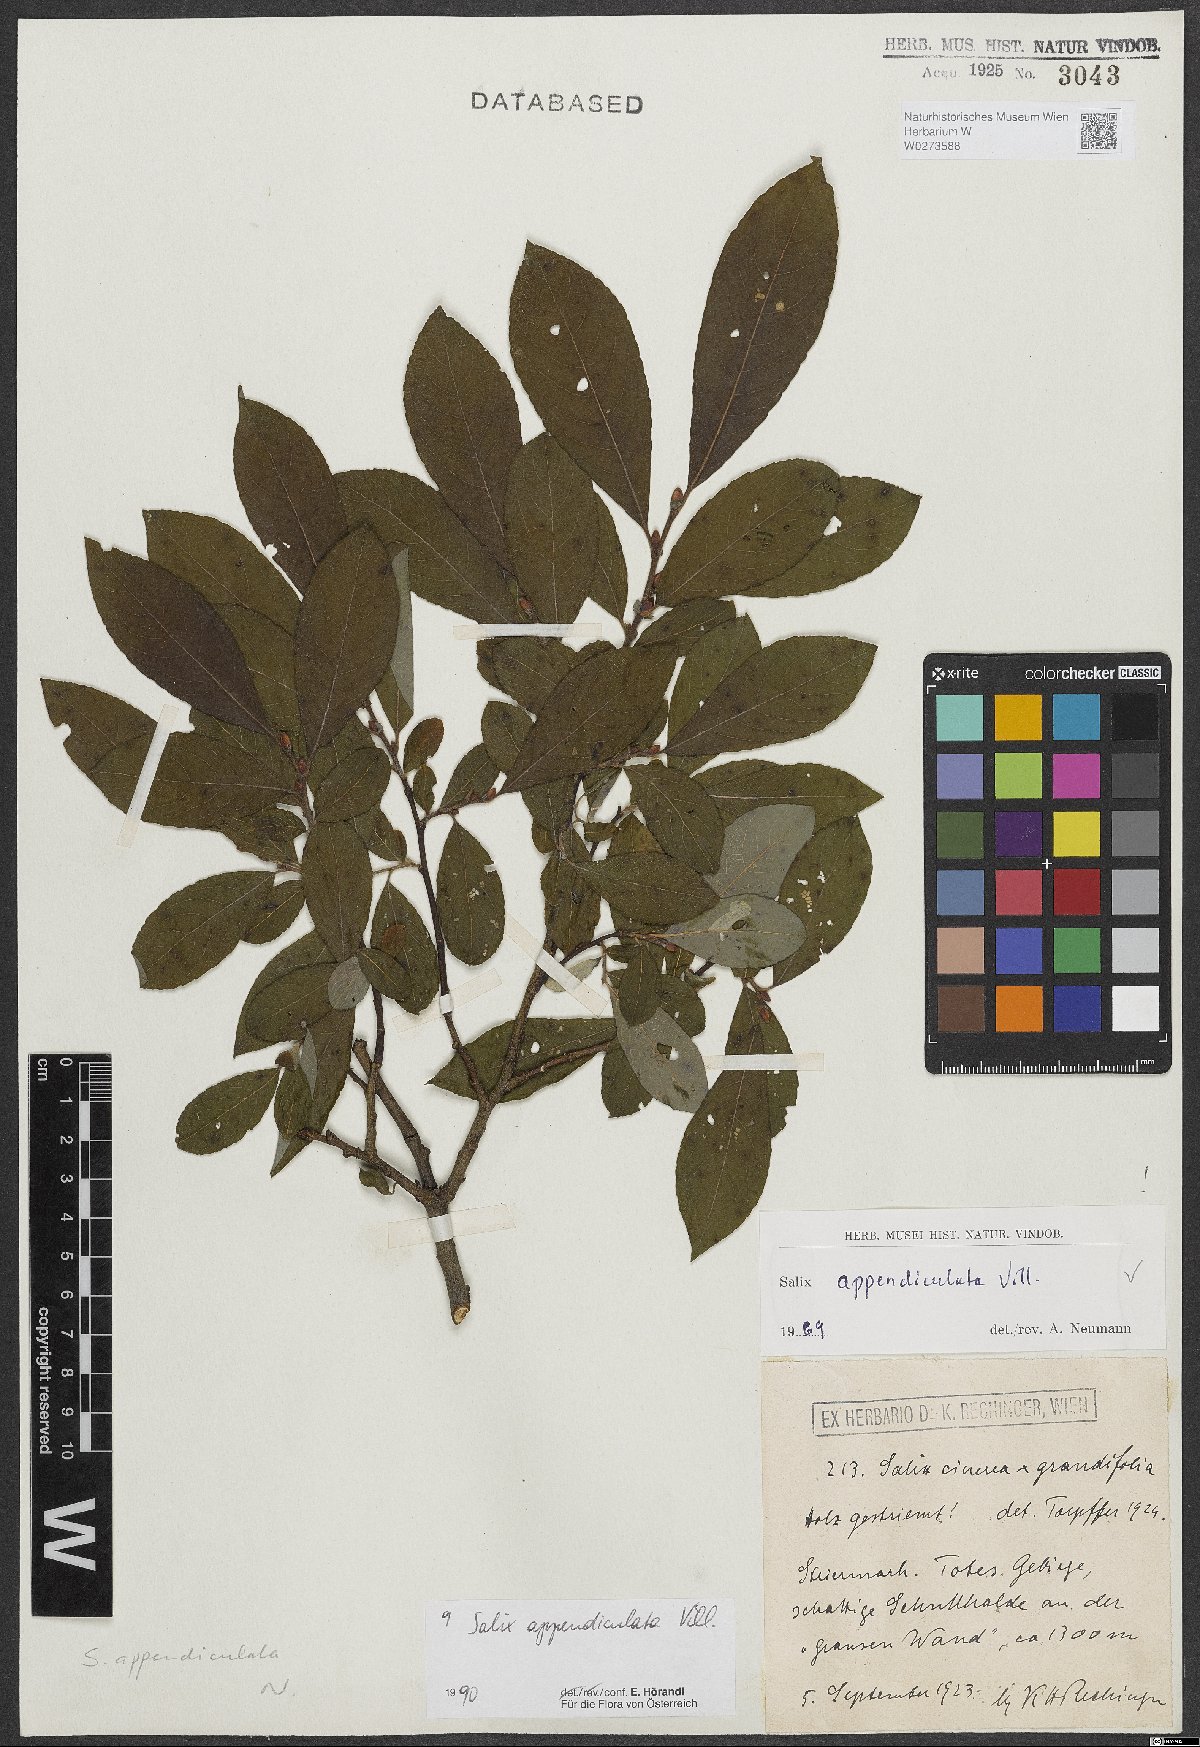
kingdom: Plantae
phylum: Tracheophyta
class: Magnoliopsida
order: Malpighiales
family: Salicaceae
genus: Salix
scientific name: Salix appendiculata
